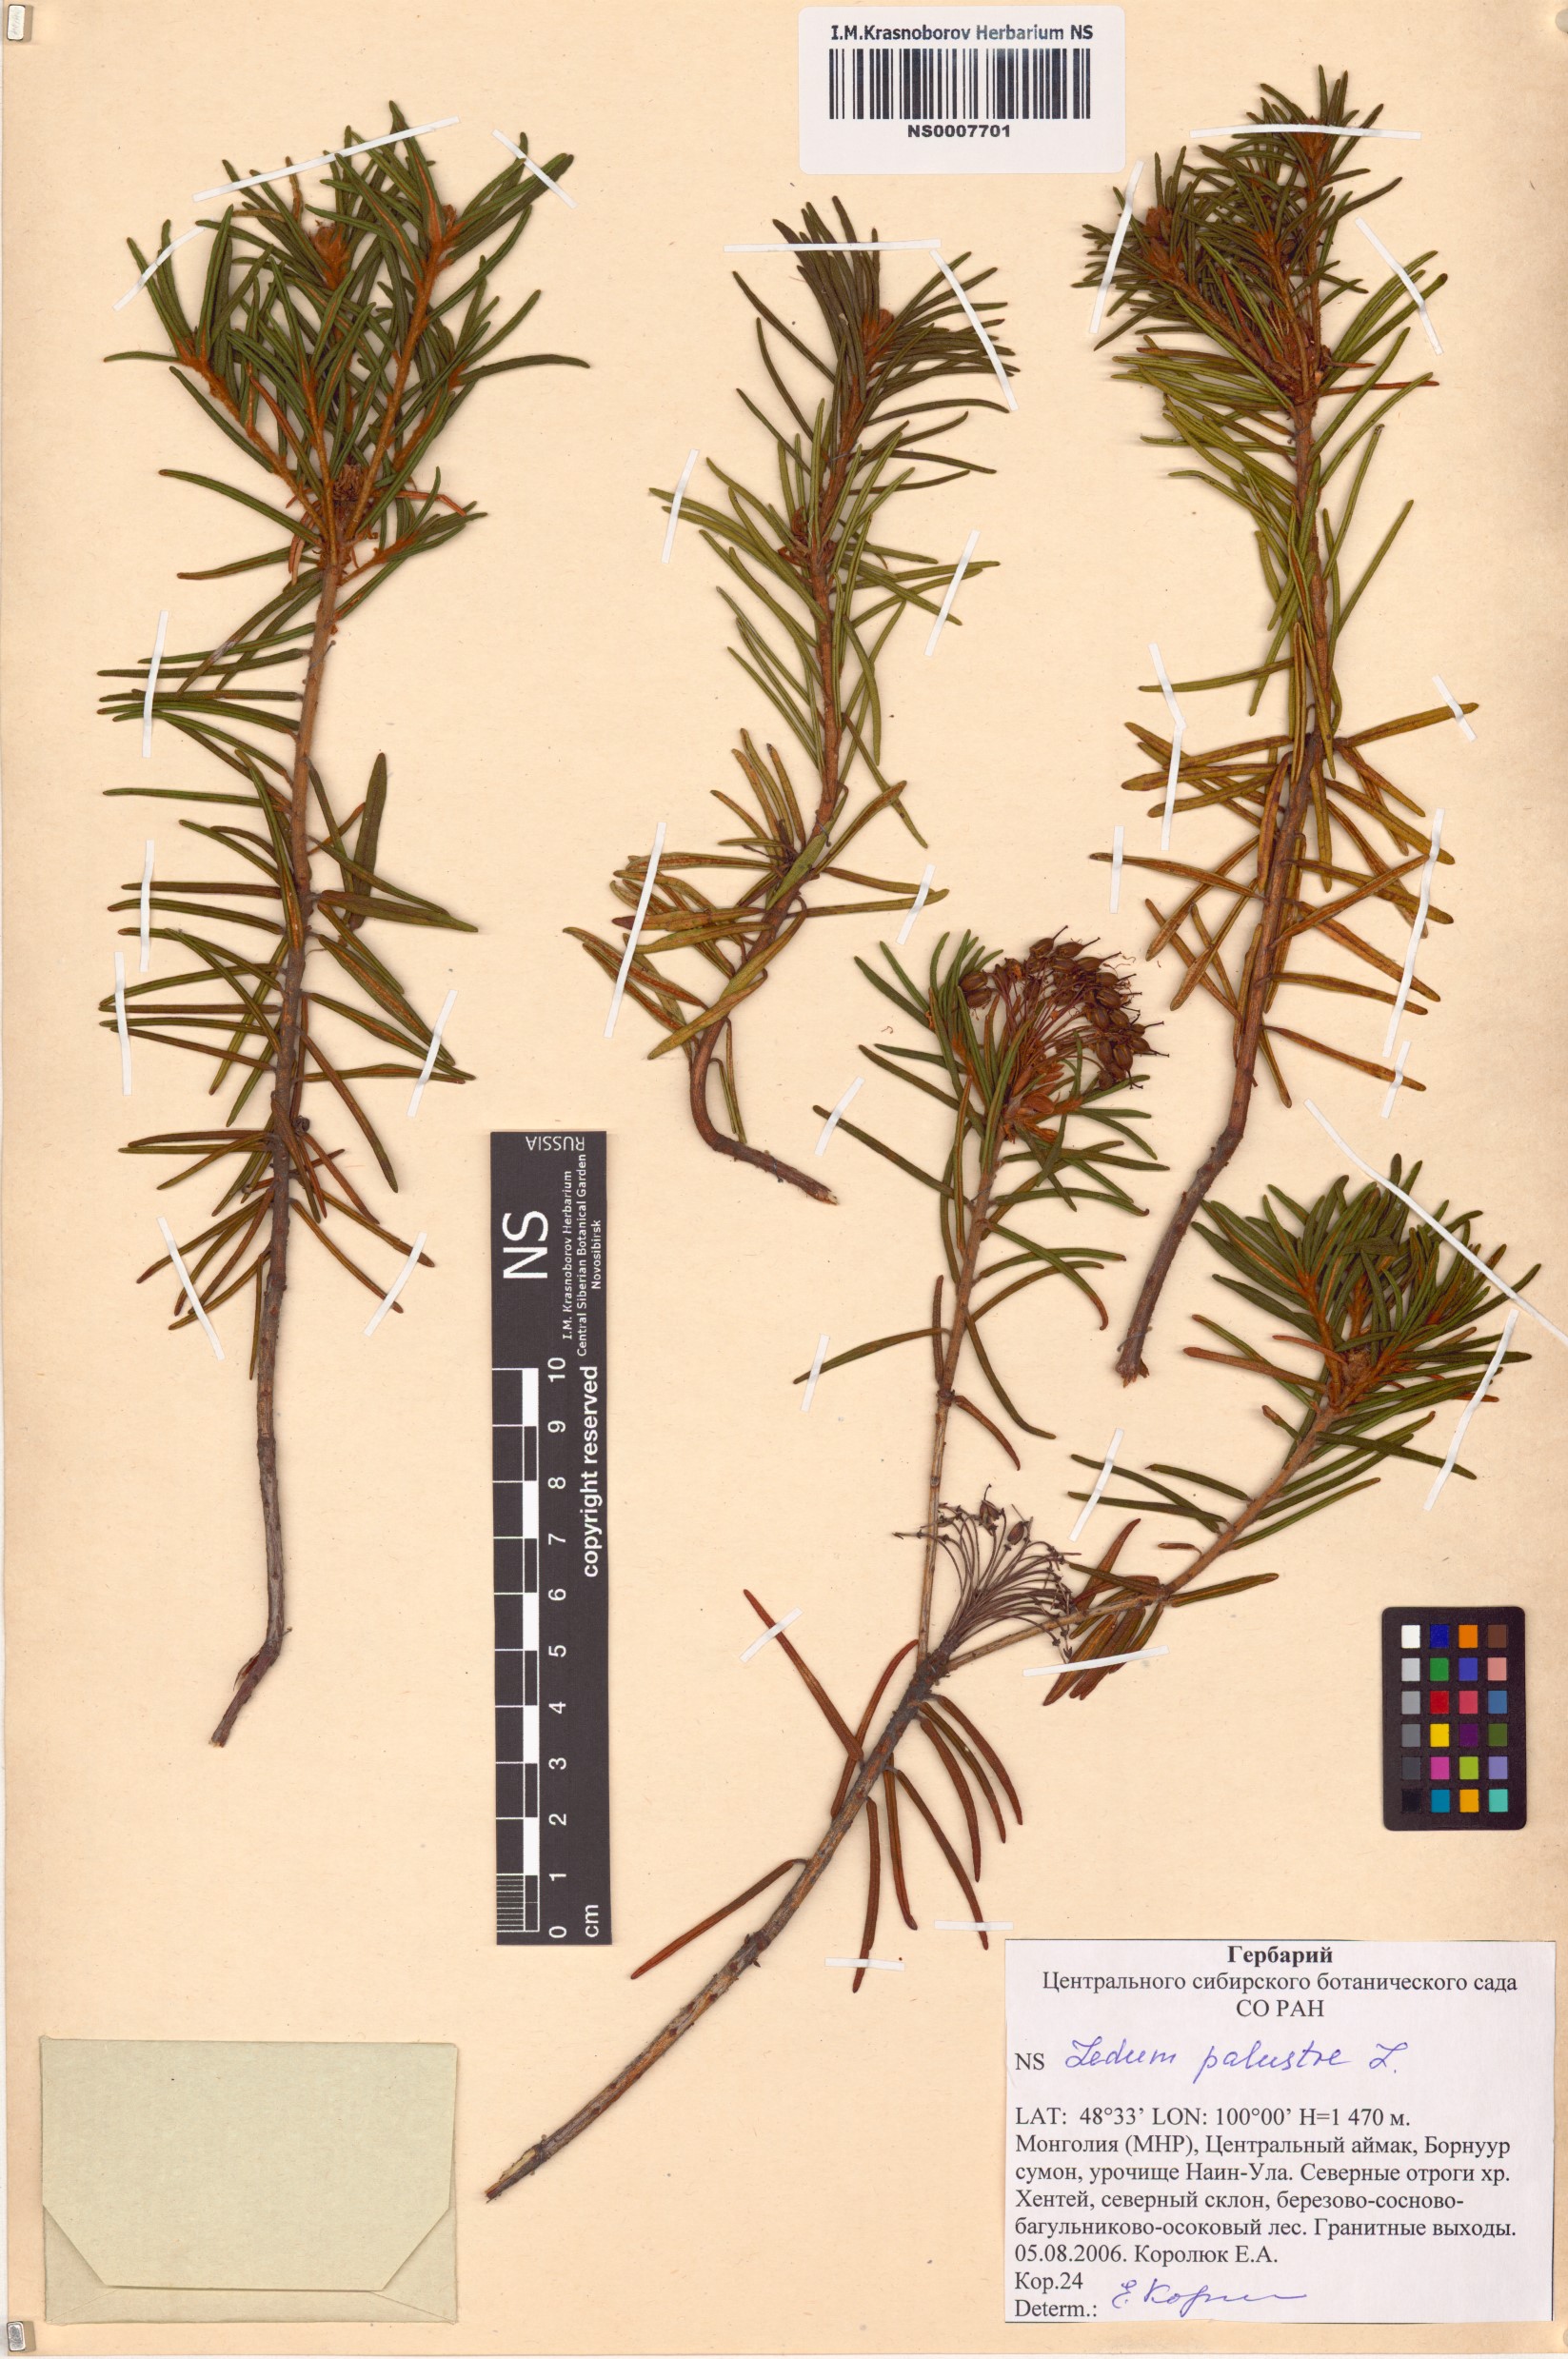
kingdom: Plantae
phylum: Tracheophyta
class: Magnoliopsida
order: Ericales
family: Ericaceae
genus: Rhododendron
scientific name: Rhododendron tomentosum
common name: Marsh labrador tea
